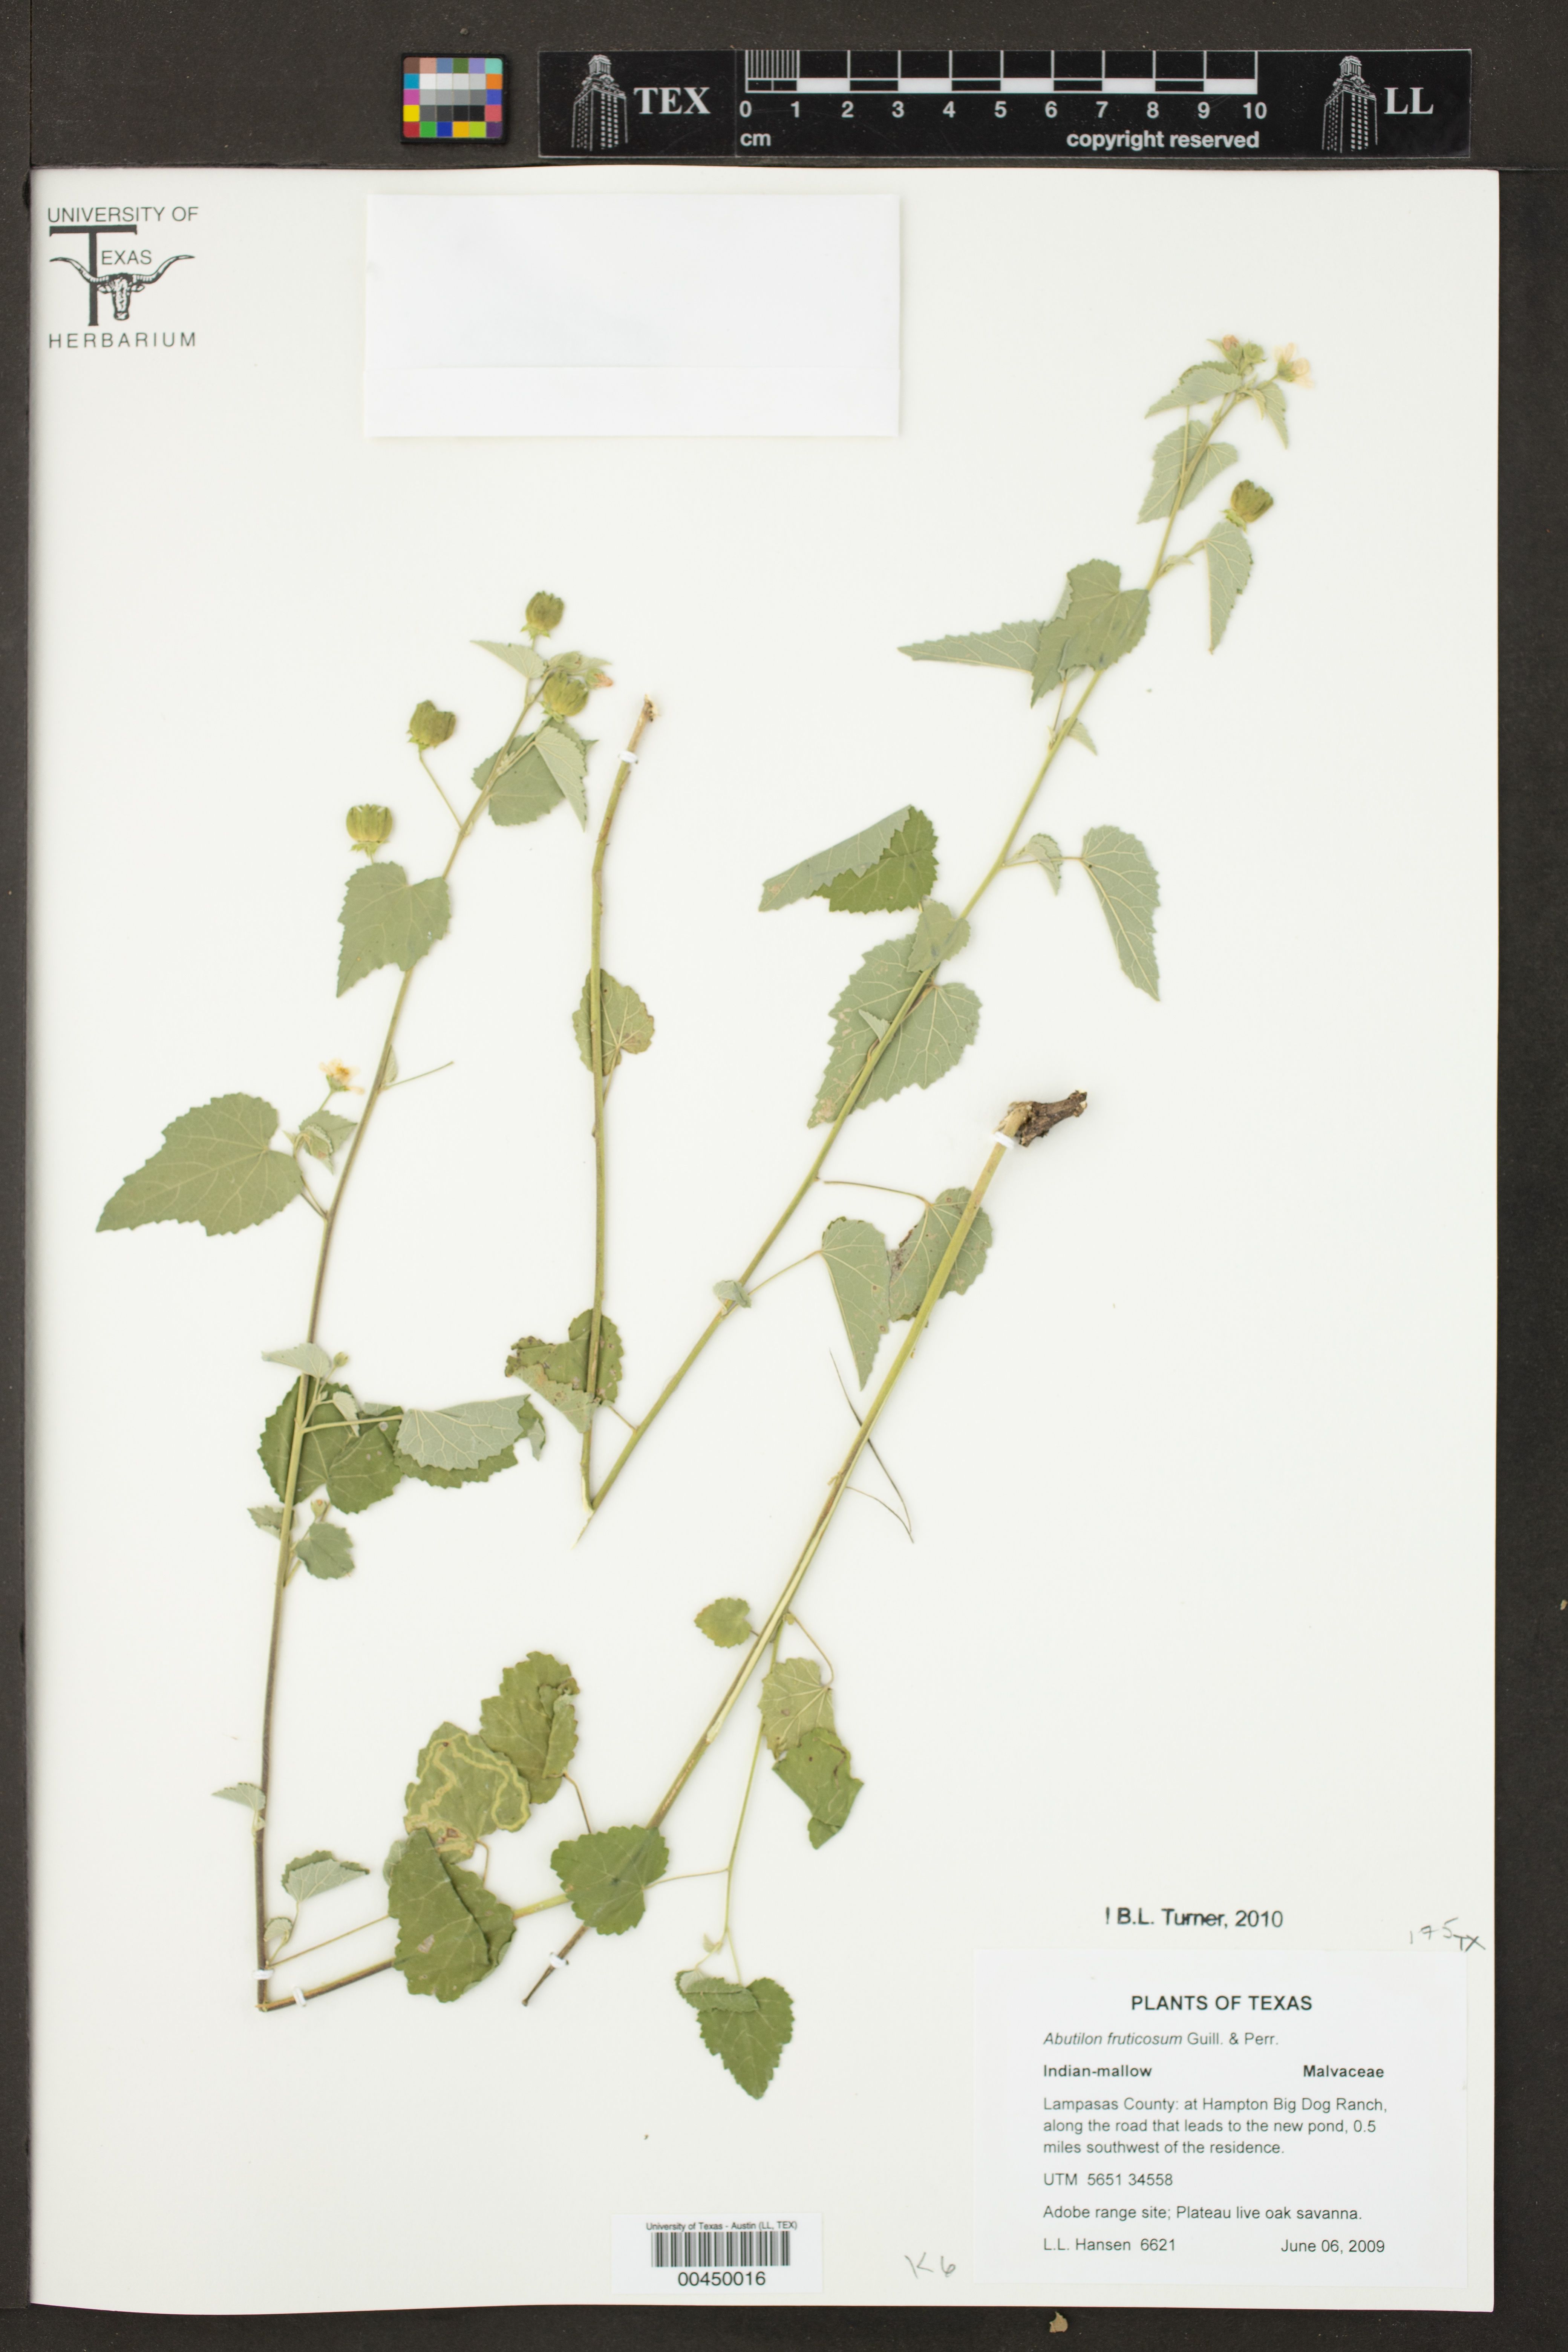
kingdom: Plantae
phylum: Tracheophyta
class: Magnoliopsida
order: Malvales
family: Malvaceae
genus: Abutilon
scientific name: Abutilon fruticosum
